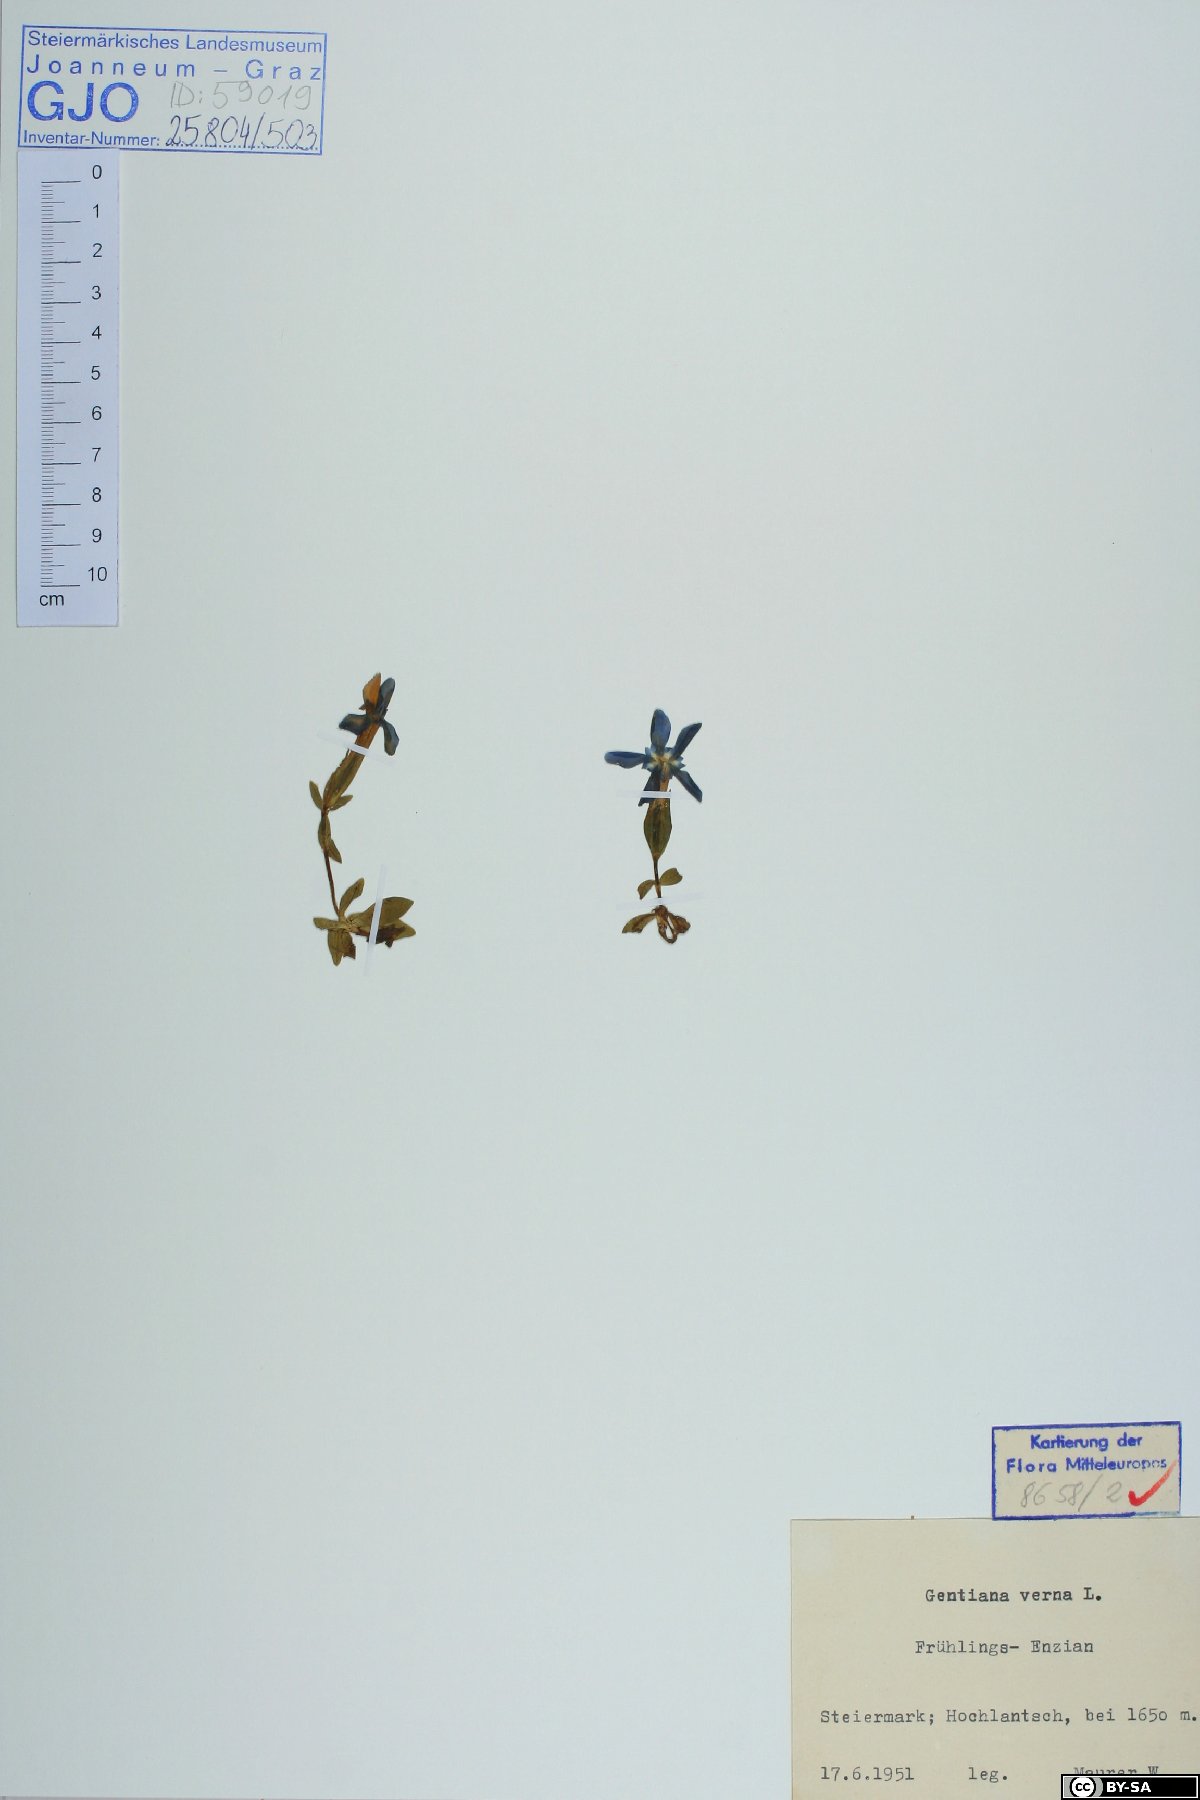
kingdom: Plantae
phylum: Tracheophyta
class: Magnoliopsida
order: Gentianales
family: Gentianaceae
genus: Gentiana
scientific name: Gentiana verna
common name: Spring gentian
